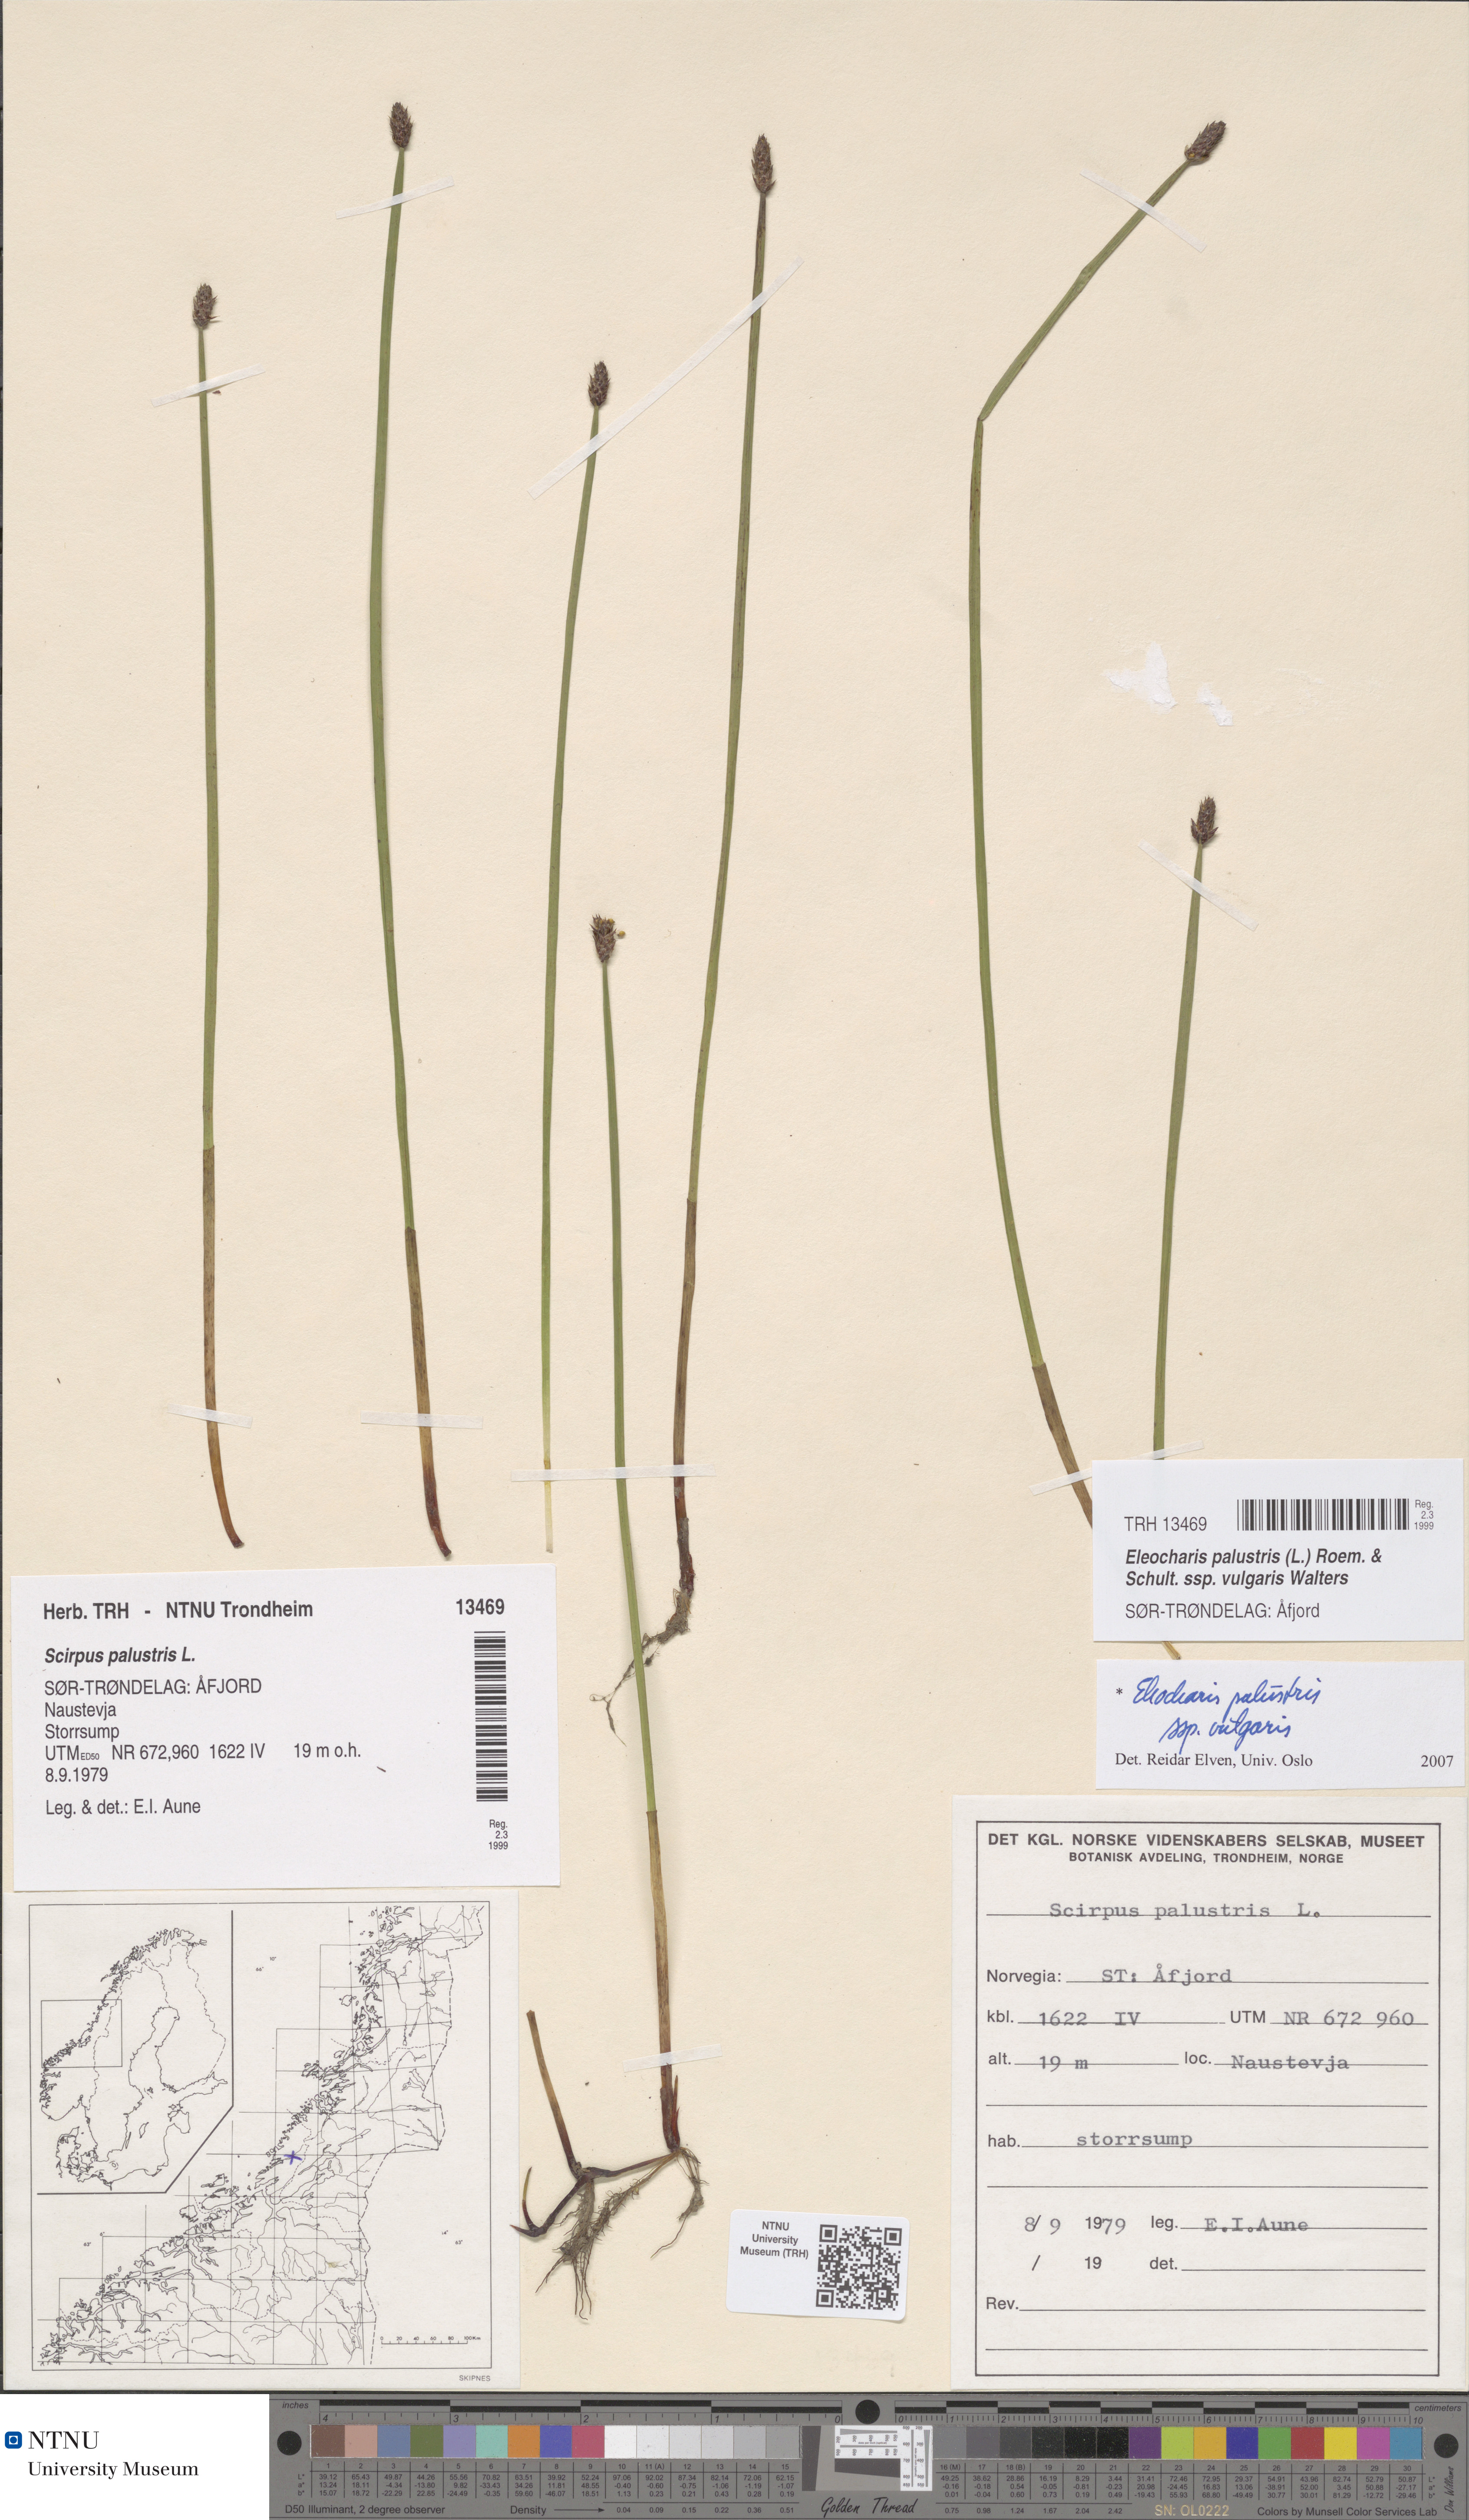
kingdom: Plantae
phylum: Tracheophyta
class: Liliopsida
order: Poales
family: Cyperaceae
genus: Eleocharis
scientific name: Eleocharis palustris
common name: Common spike-rush
